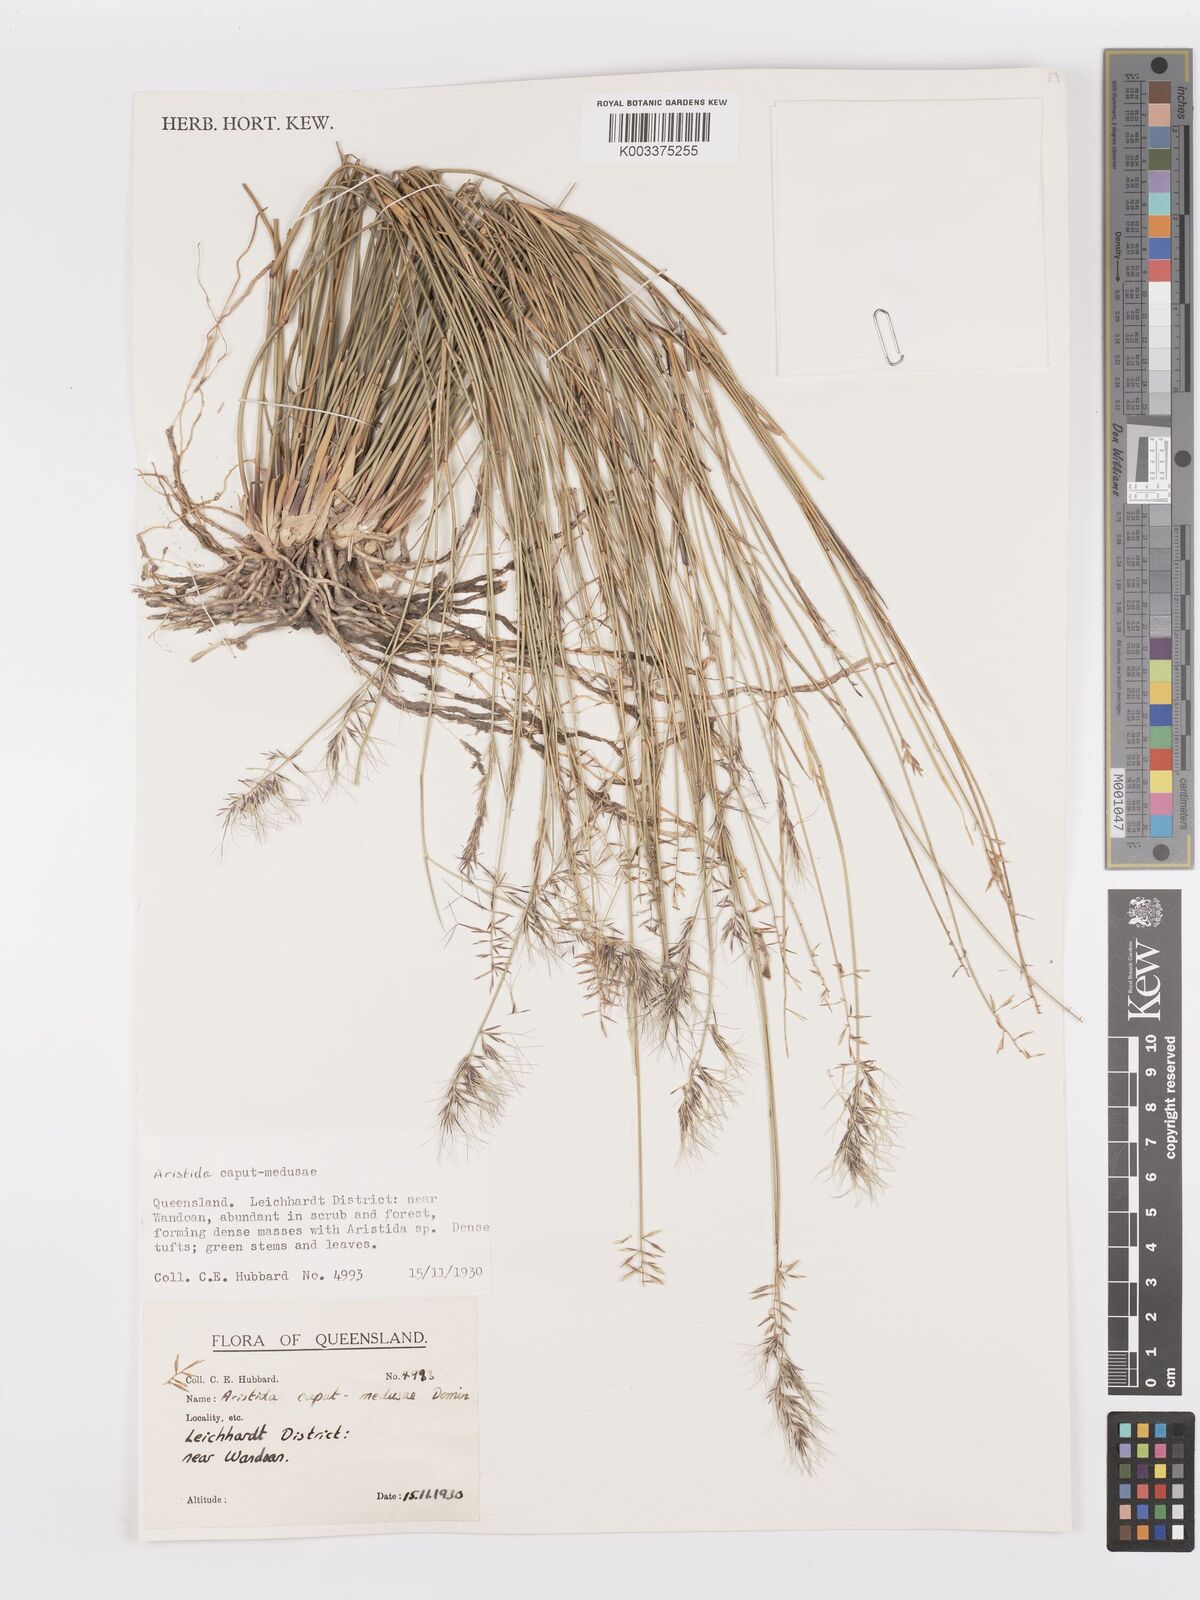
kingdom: Plantae
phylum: Tracheophyta
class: Liliopsida
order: Poales
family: Poaceae
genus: Aristida
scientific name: Aristida caput-medusae
